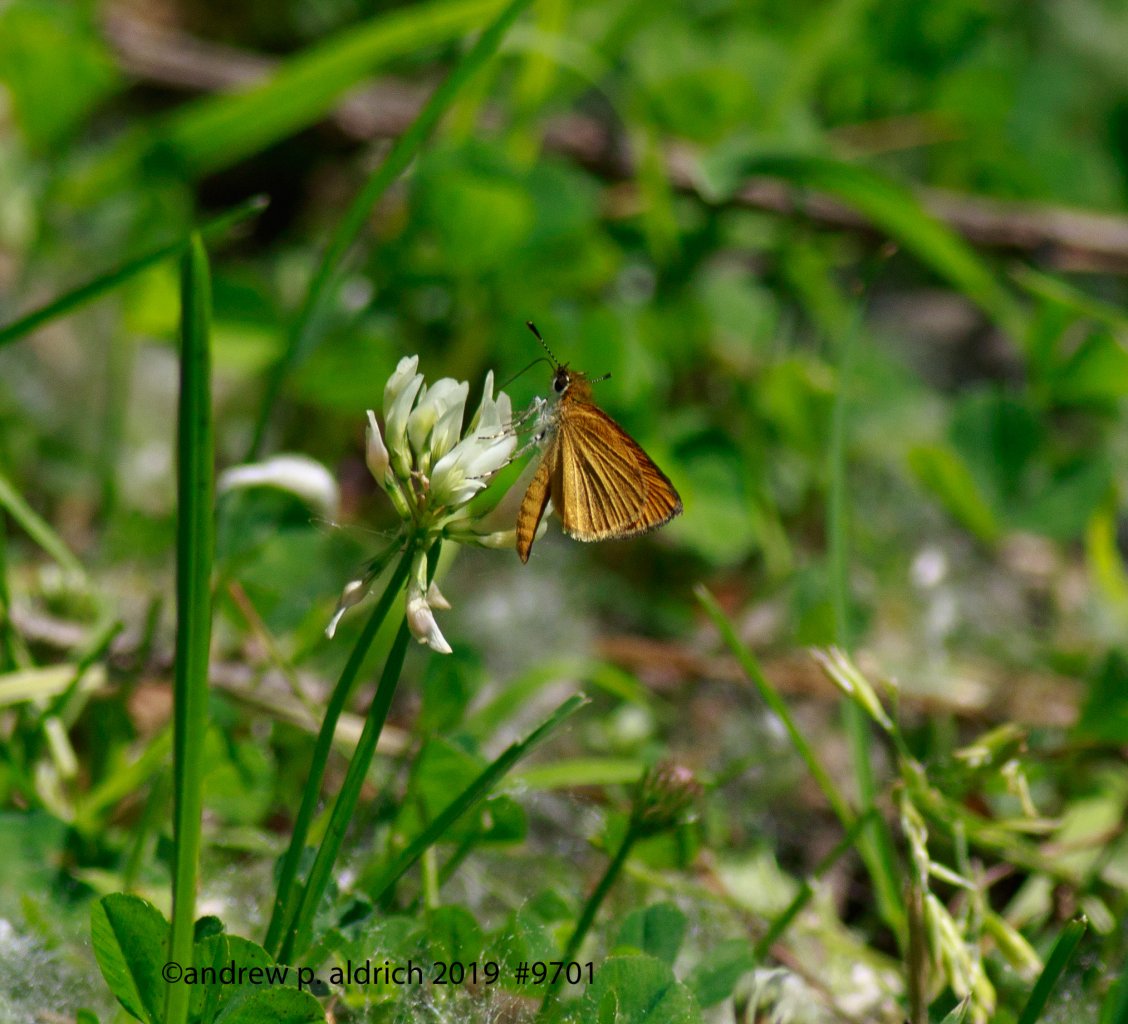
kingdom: Animalia
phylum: Arthropoda
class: Insecta
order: Lepidoptera
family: Hesperiidae
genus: Ancyloxypha
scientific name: Ancyloxypha numitor
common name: Least Skipper
